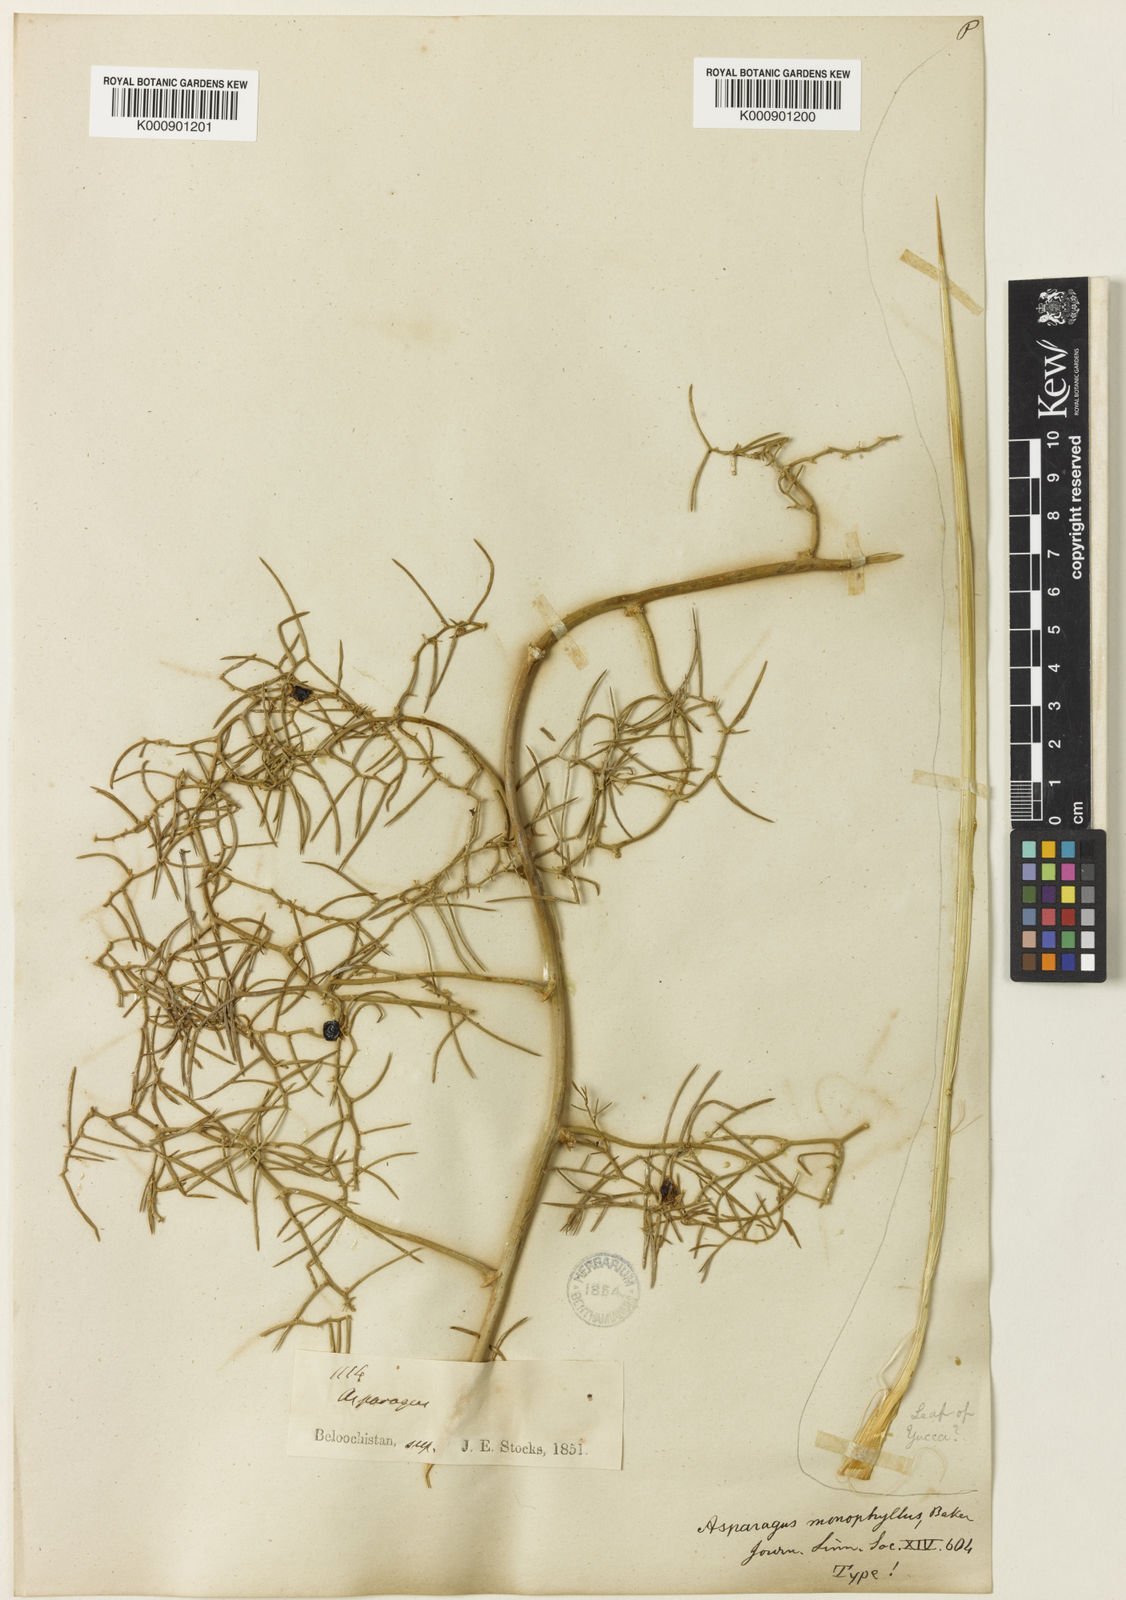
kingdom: Plantae
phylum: Tracheophyta
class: Liliopsida
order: Asparagales
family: Asparagaceae
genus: Asparagus
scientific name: Asparagus monophyllus
